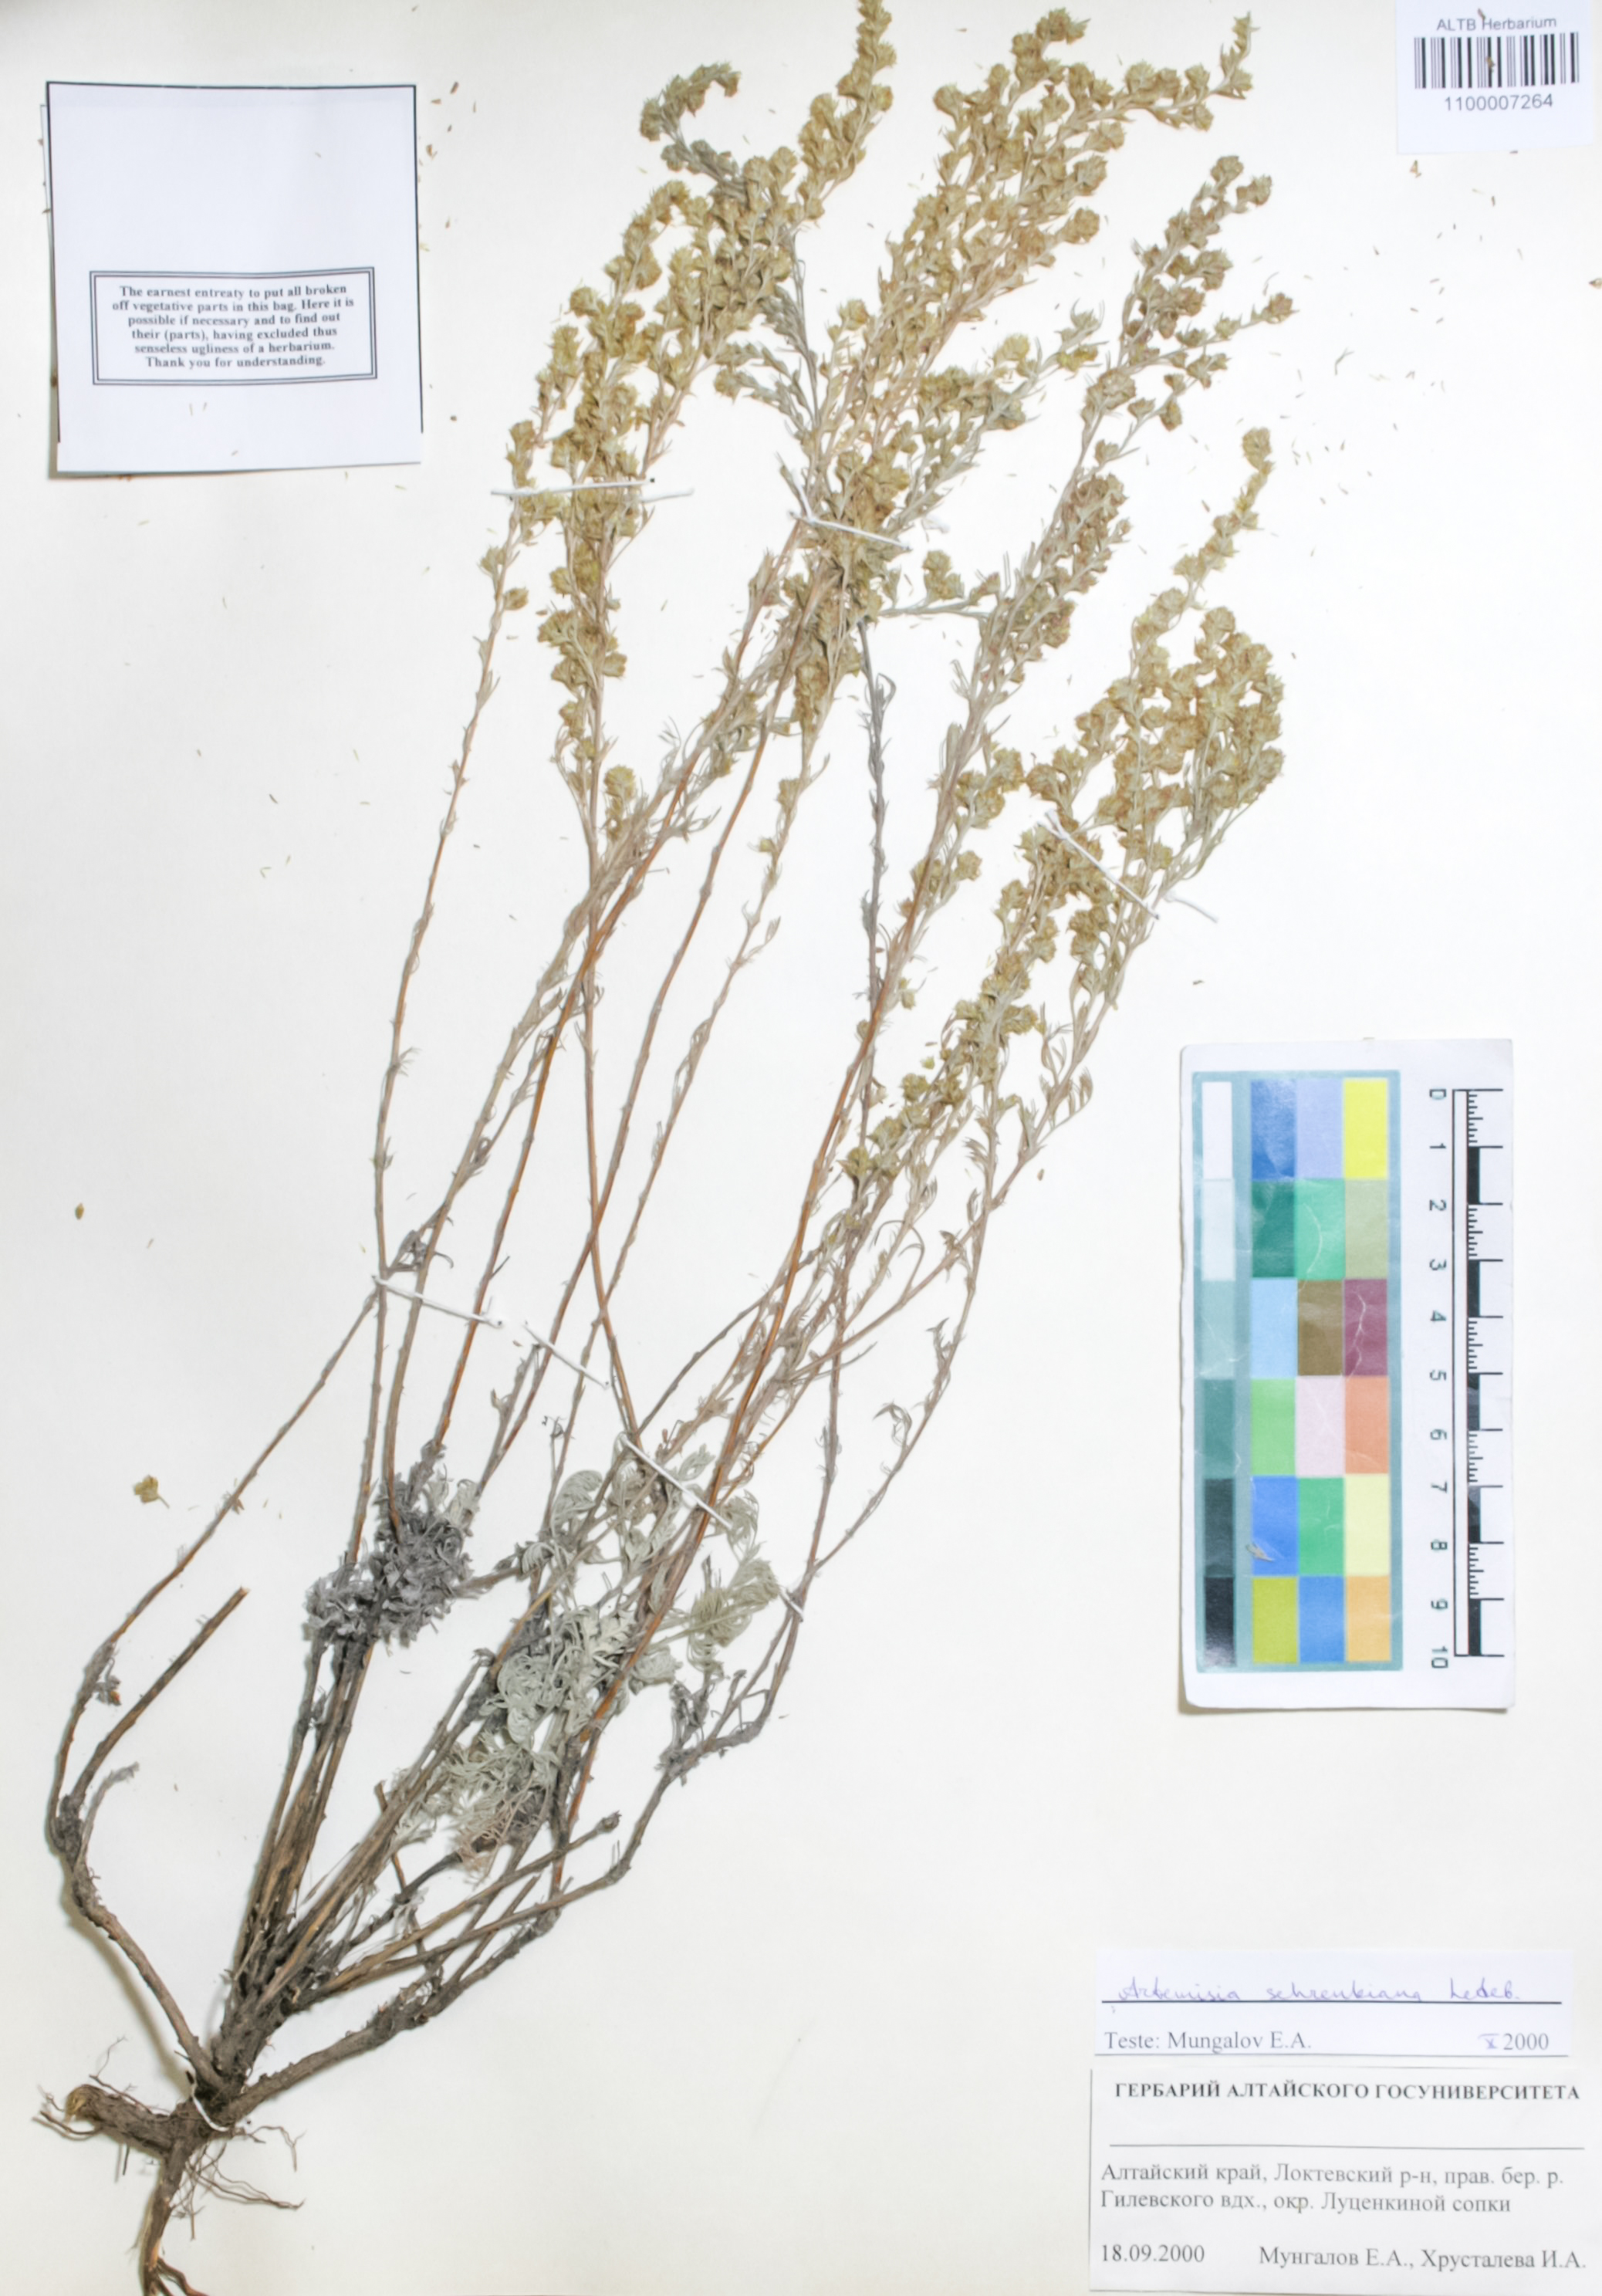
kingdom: Plantae
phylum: Tracheophyta
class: Magnoliopsida
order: Asterales
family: Asteraceae
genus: Artemisia
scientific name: Artemisia schrenkiana
